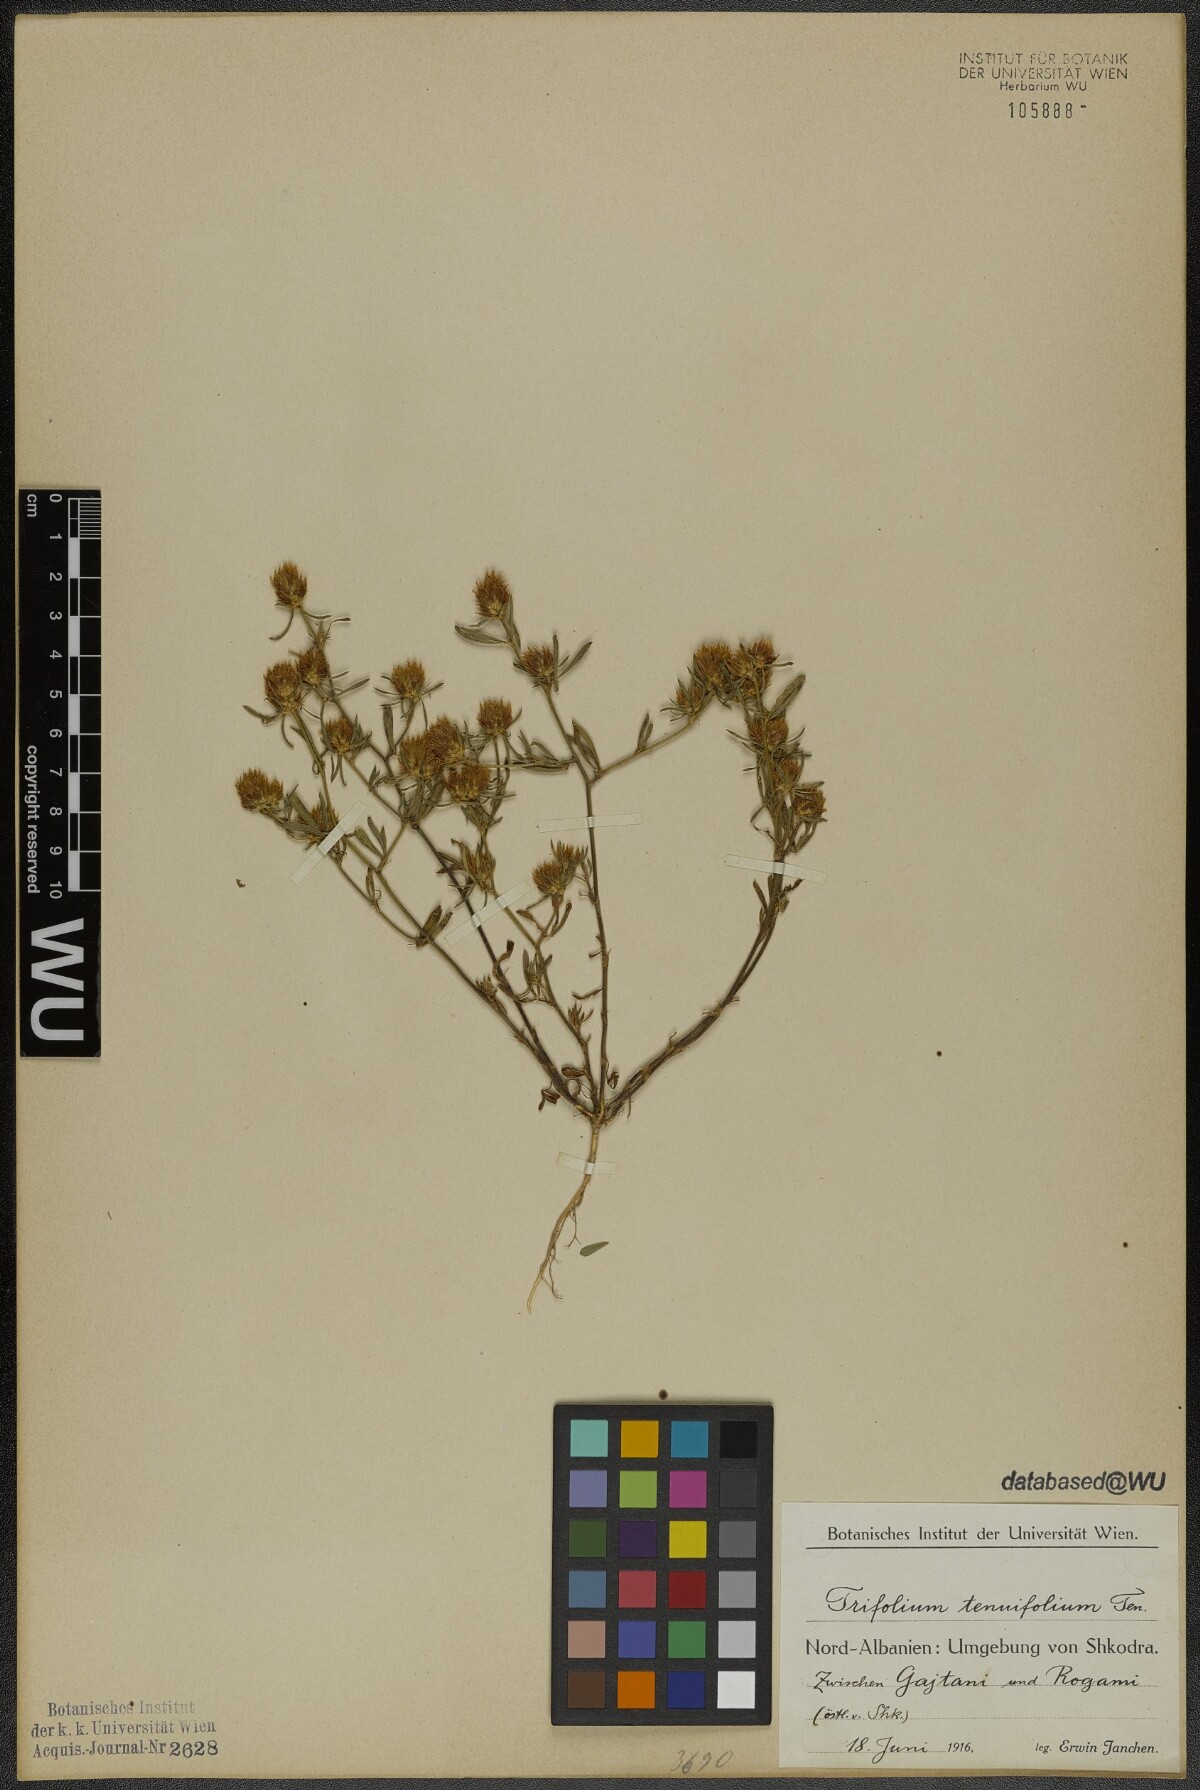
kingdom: Plantae
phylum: Tracheophyta
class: Magnoliopsida
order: Fabales
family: Fabaceae
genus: Trifolium
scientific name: Trifolium tenuifolium
